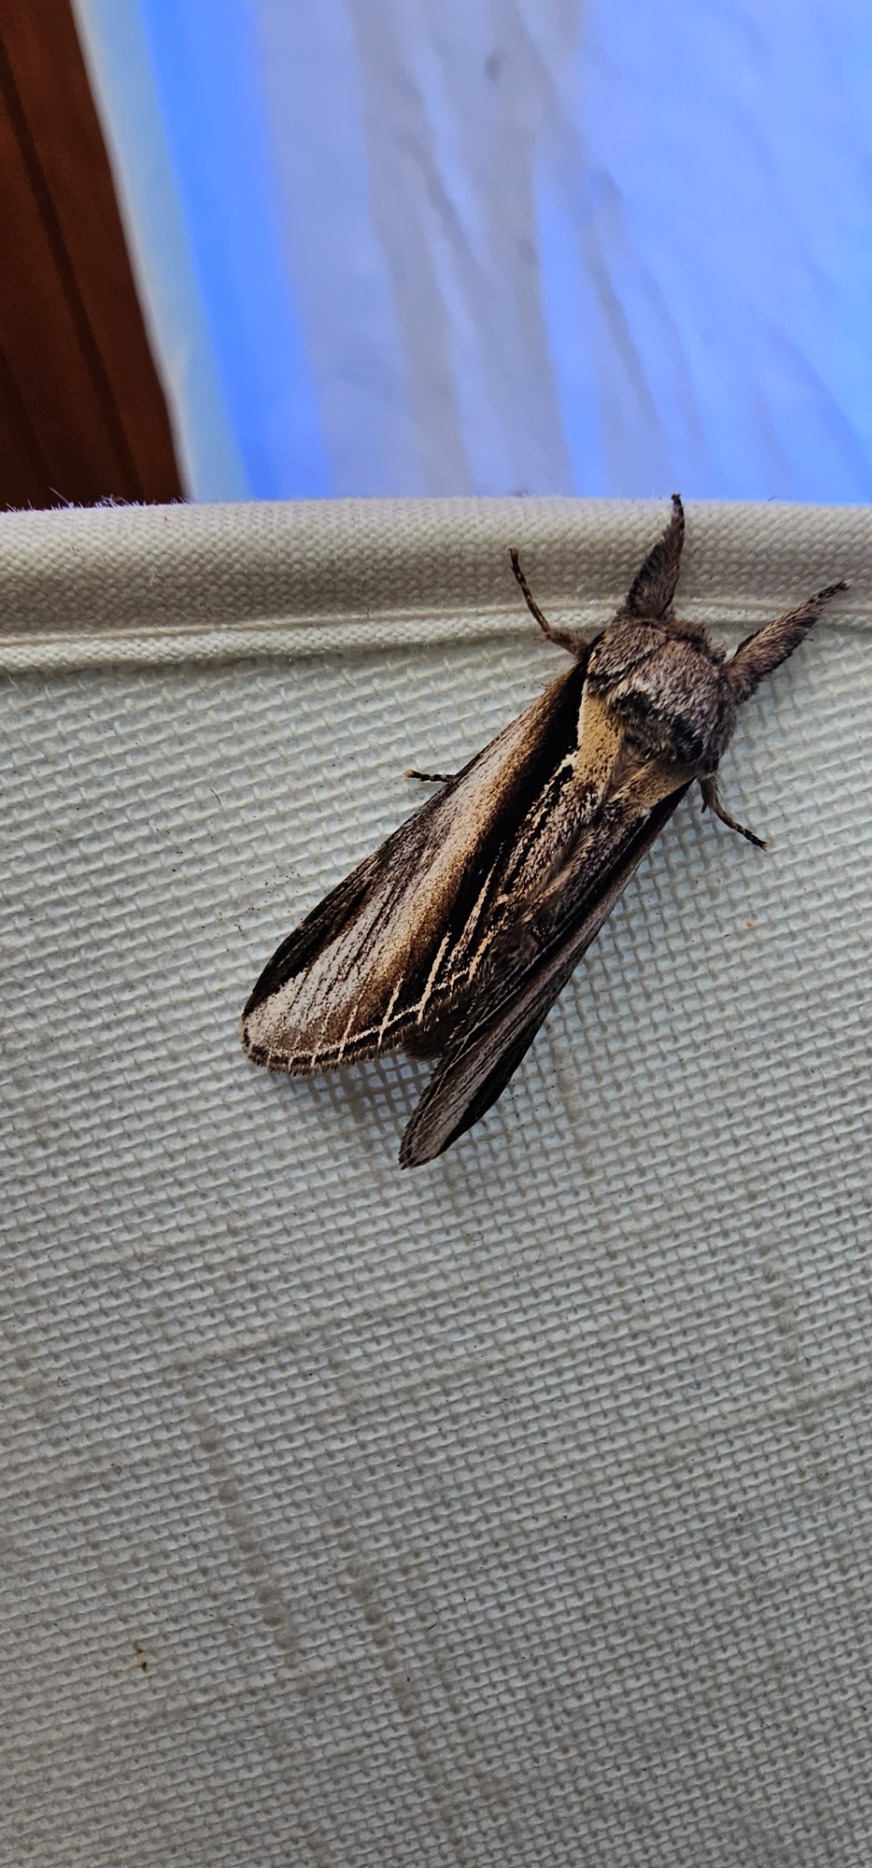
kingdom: Animalia
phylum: Arthropoda
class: Insecta
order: Lepidoptera
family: Notodontidae
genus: Pheosia
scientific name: Pheosia tremula
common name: Poppelporcelænsspinder
